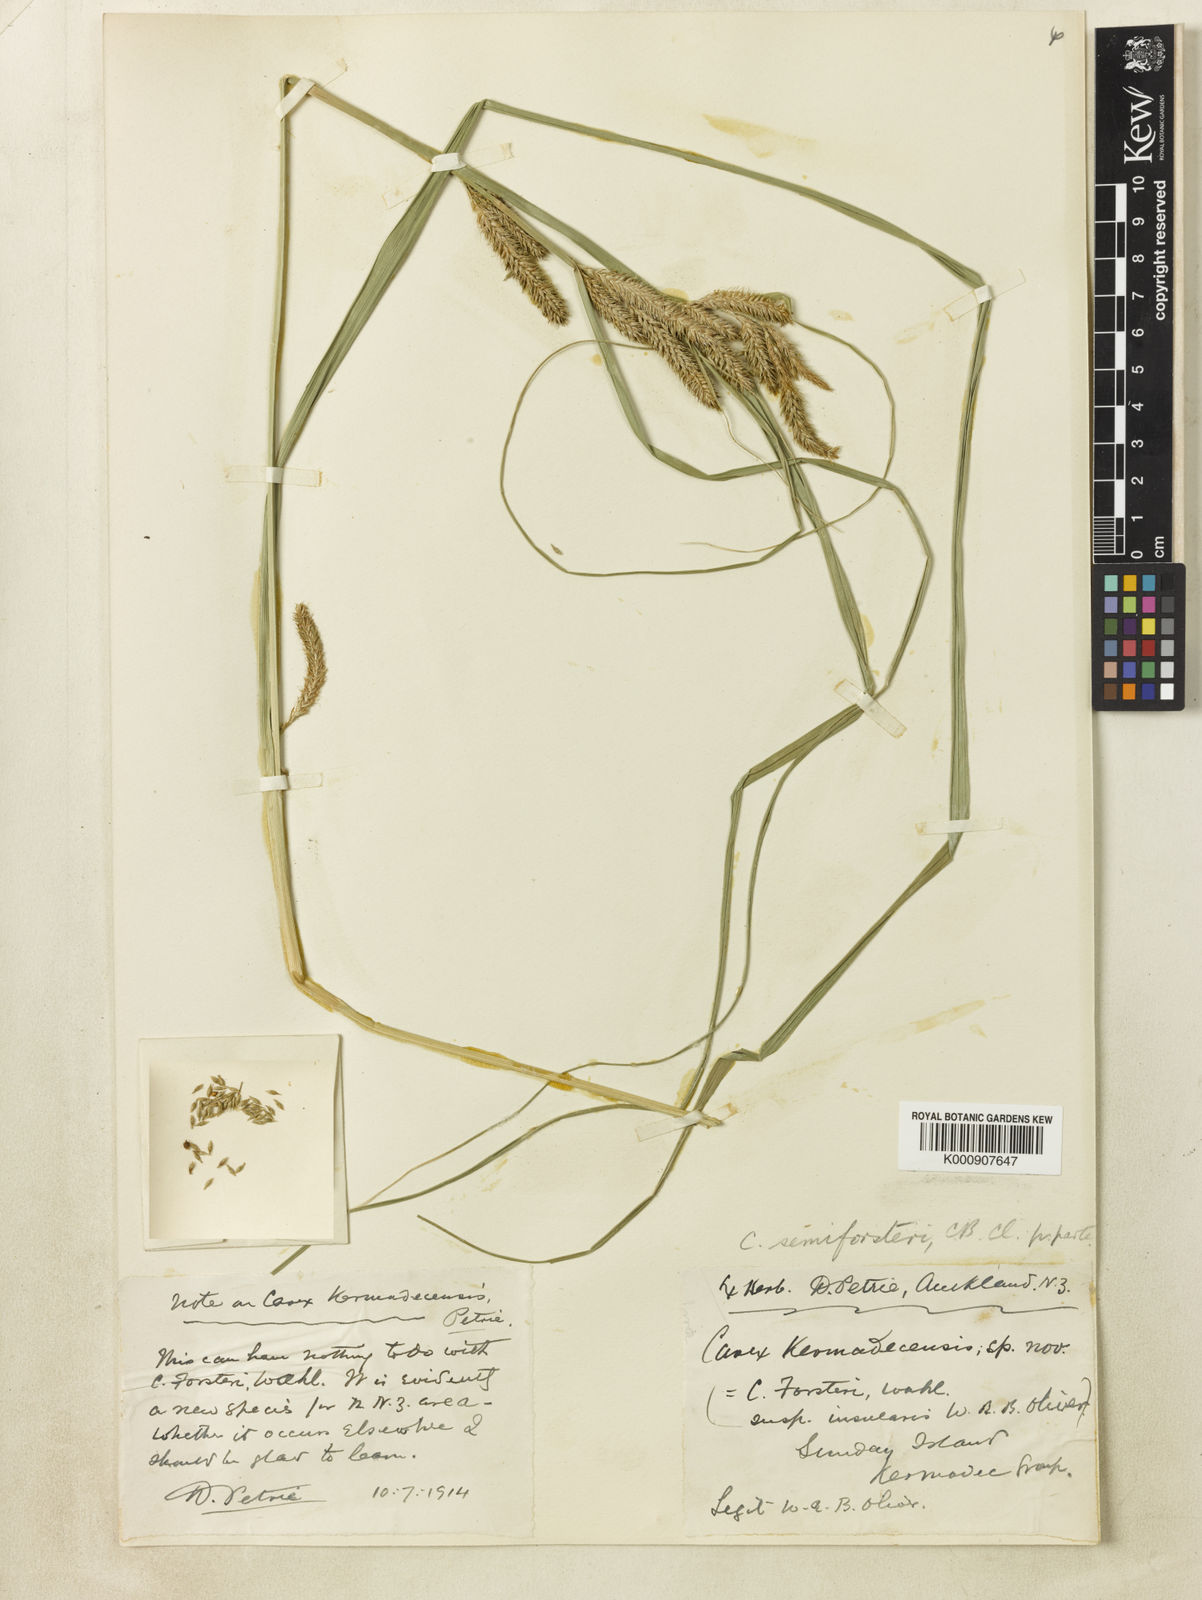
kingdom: Plantae
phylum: Tracheophyta
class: Liliopsida
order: Poales
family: Cyperaceae
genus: Carex
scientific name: Carex forsteri
